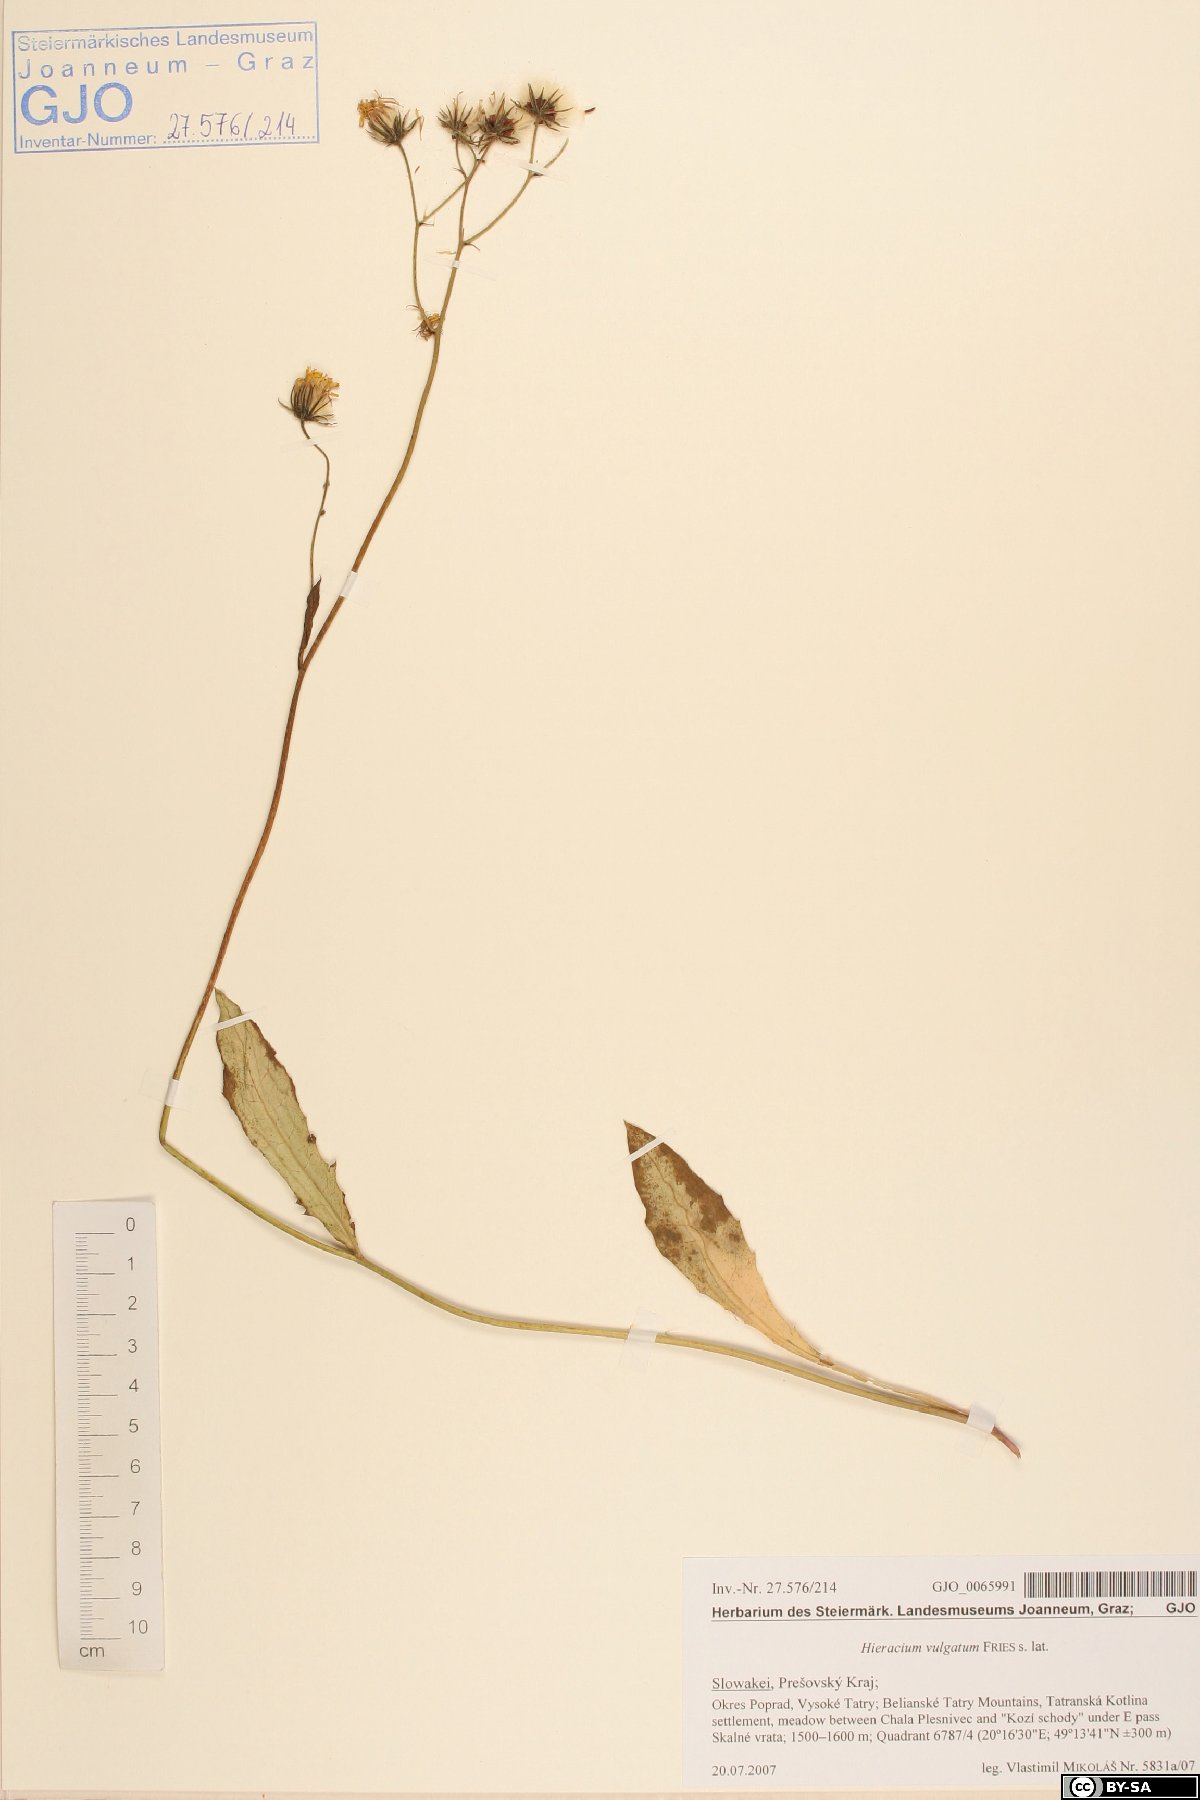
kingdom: Plantae
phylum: Tracheophyta
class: Magnoliopsida
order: Asterales
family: Asteraceae
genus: Hieracium
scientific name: Hieracium lachenalii
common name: Common hawkweed
